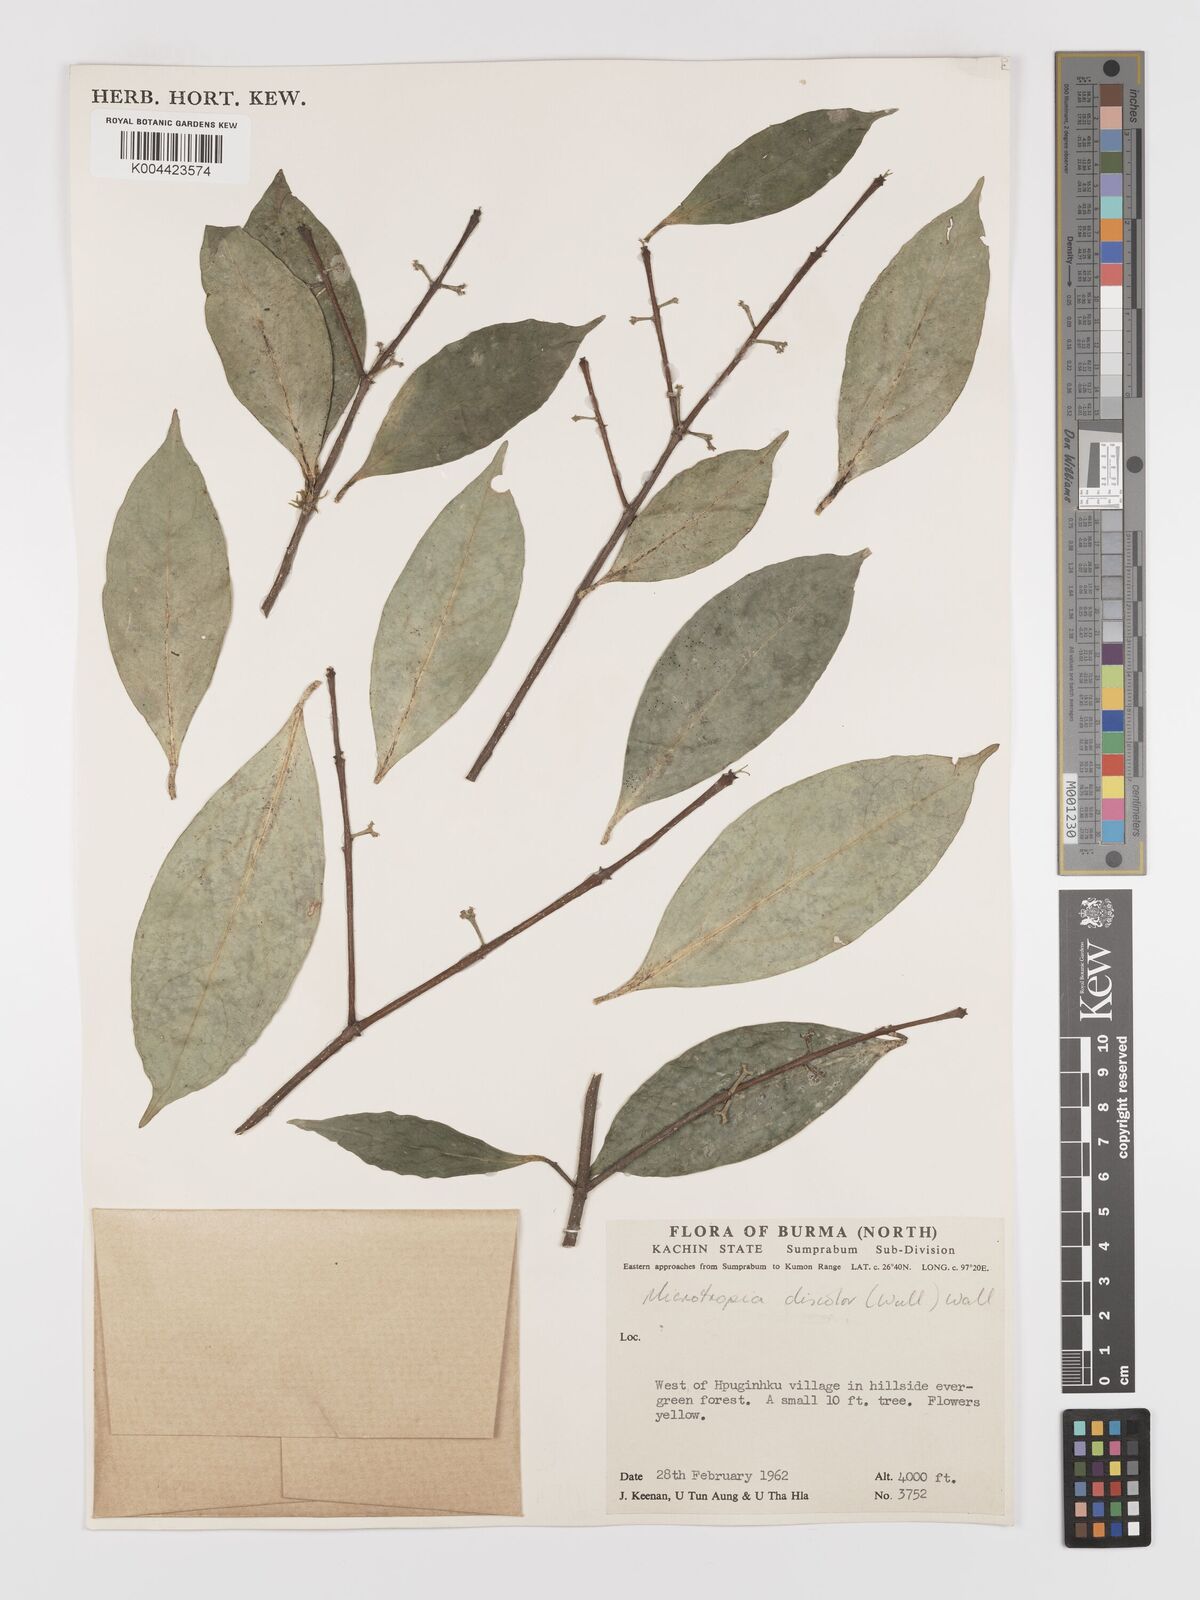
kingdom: Plantae
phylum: Tracheophyta
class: Magnoliopsida
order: Celastrales
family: Celastraceae
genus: Microtropis
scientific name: Microtropis discolor
